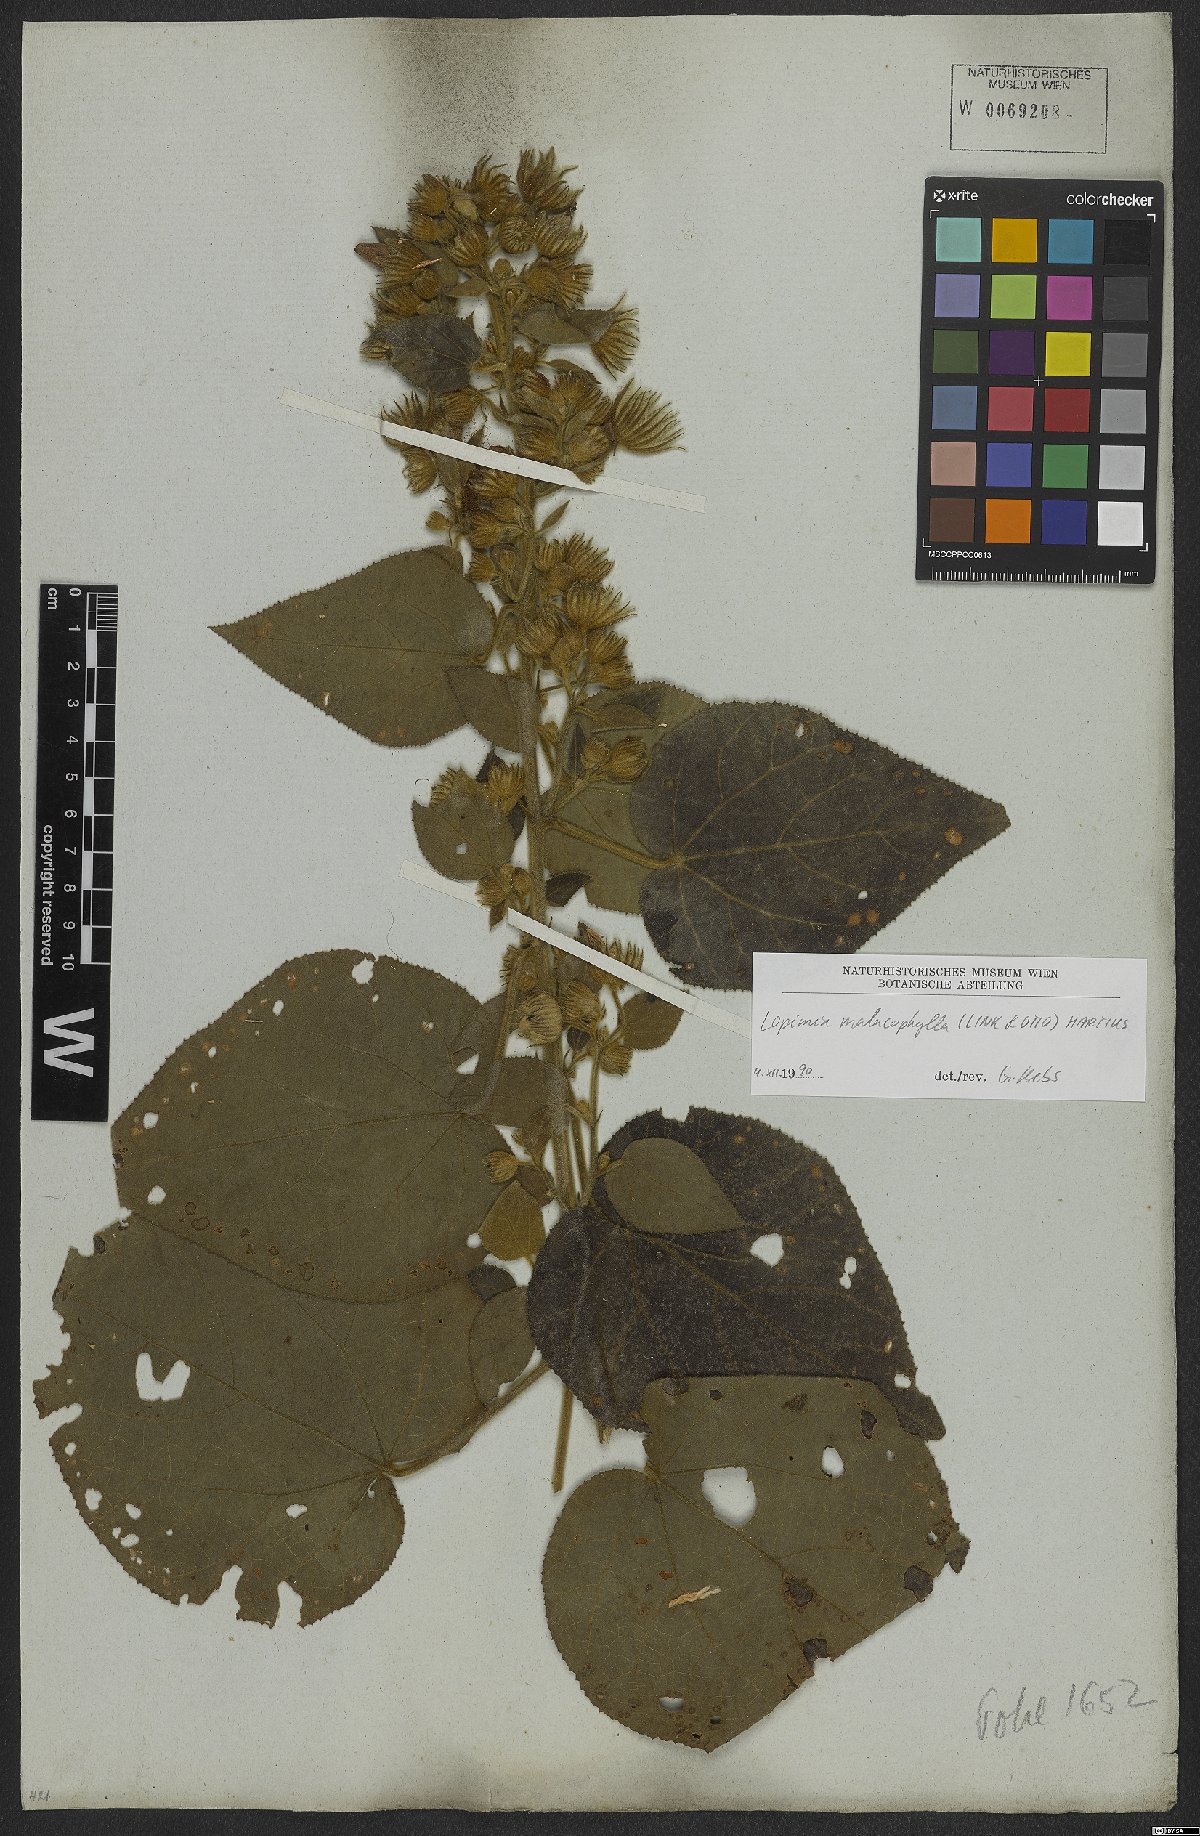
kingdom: Plantae
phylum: Tracheophyta
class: Magnoliopsida
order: Malvales
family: Malvaceae
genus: Pavonia
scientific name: Pavonia malacophylla
